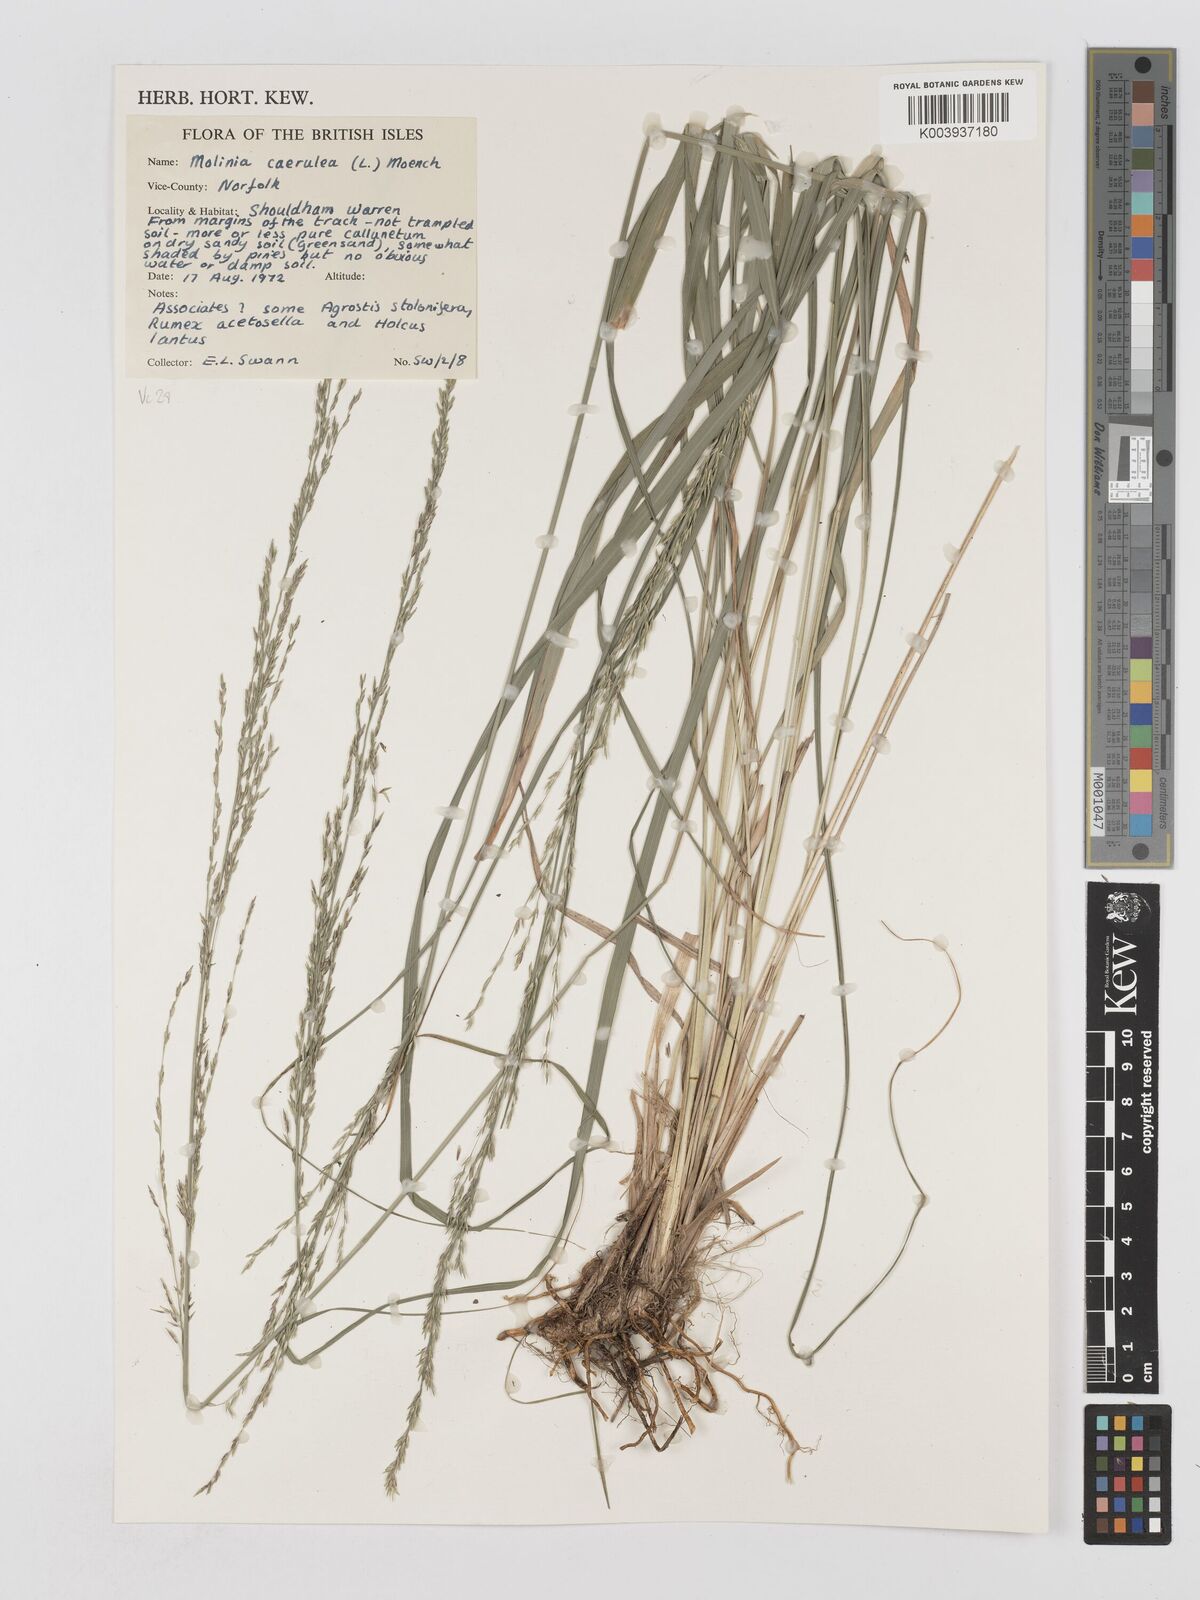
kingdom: Plantae
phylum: Tracheophyta
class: Liliopsida
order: Poales
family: Poaceae
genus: Molinia
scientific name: Molinia caerulea
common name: Purple moor-grass
